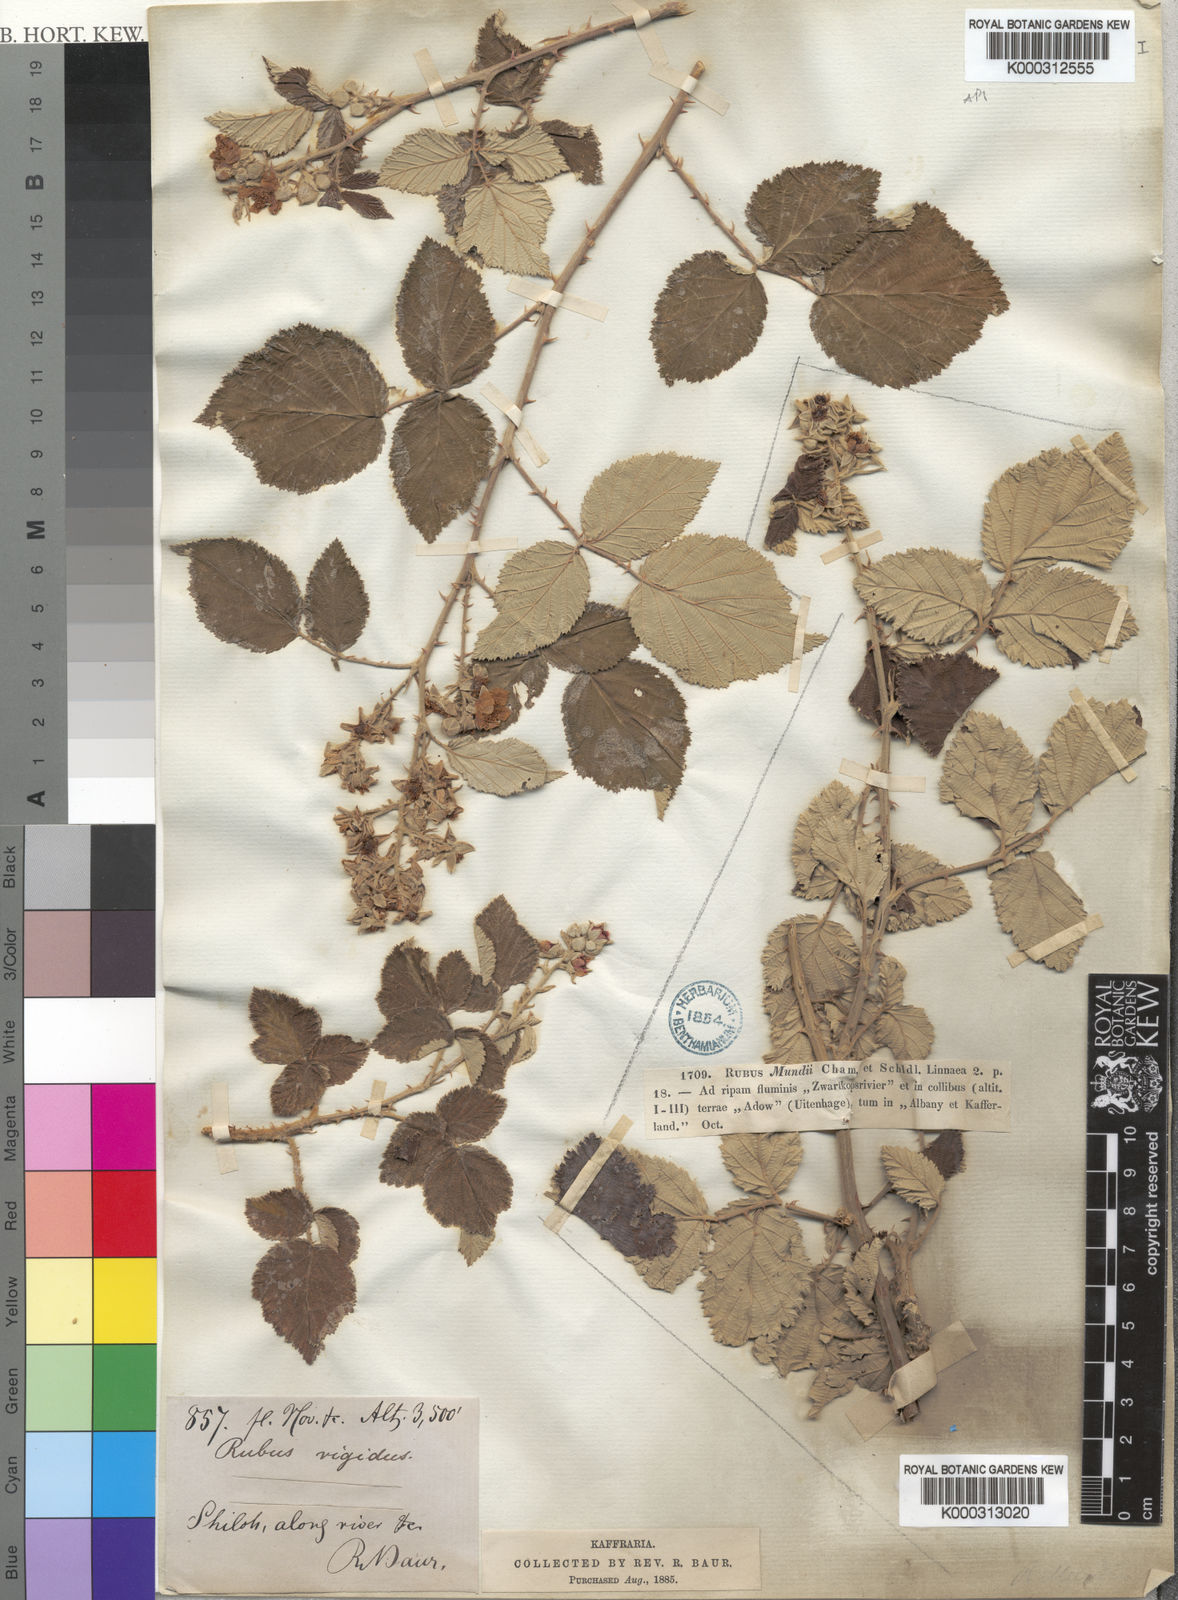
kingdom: Plantae
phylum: Tracheophyta
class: Magnoliopsida
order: Rosales
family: Rosaceae
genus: Rubus
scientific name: Rubus
